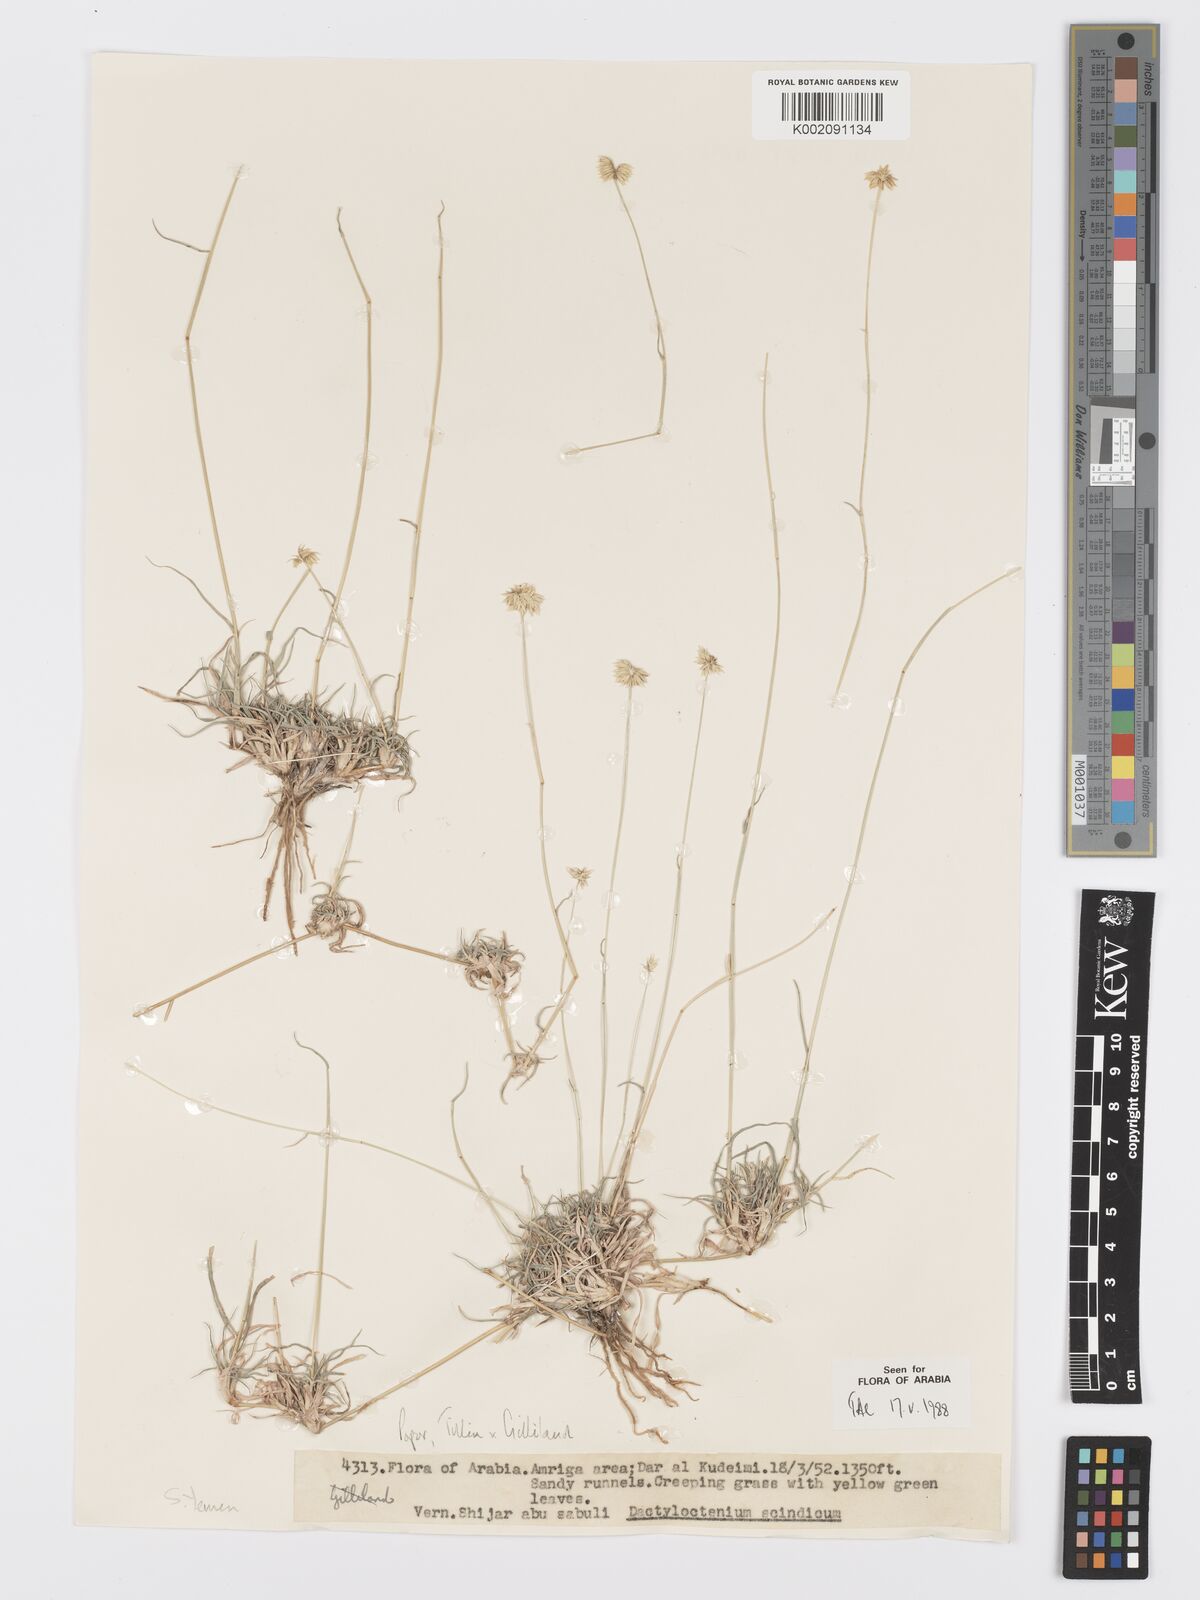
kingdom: Plantae
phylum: Tracheophyta
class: Liliopsida
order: Poales
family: Poaceae
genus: Dactyloctenium
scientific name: Dactyloctenium scindicum
